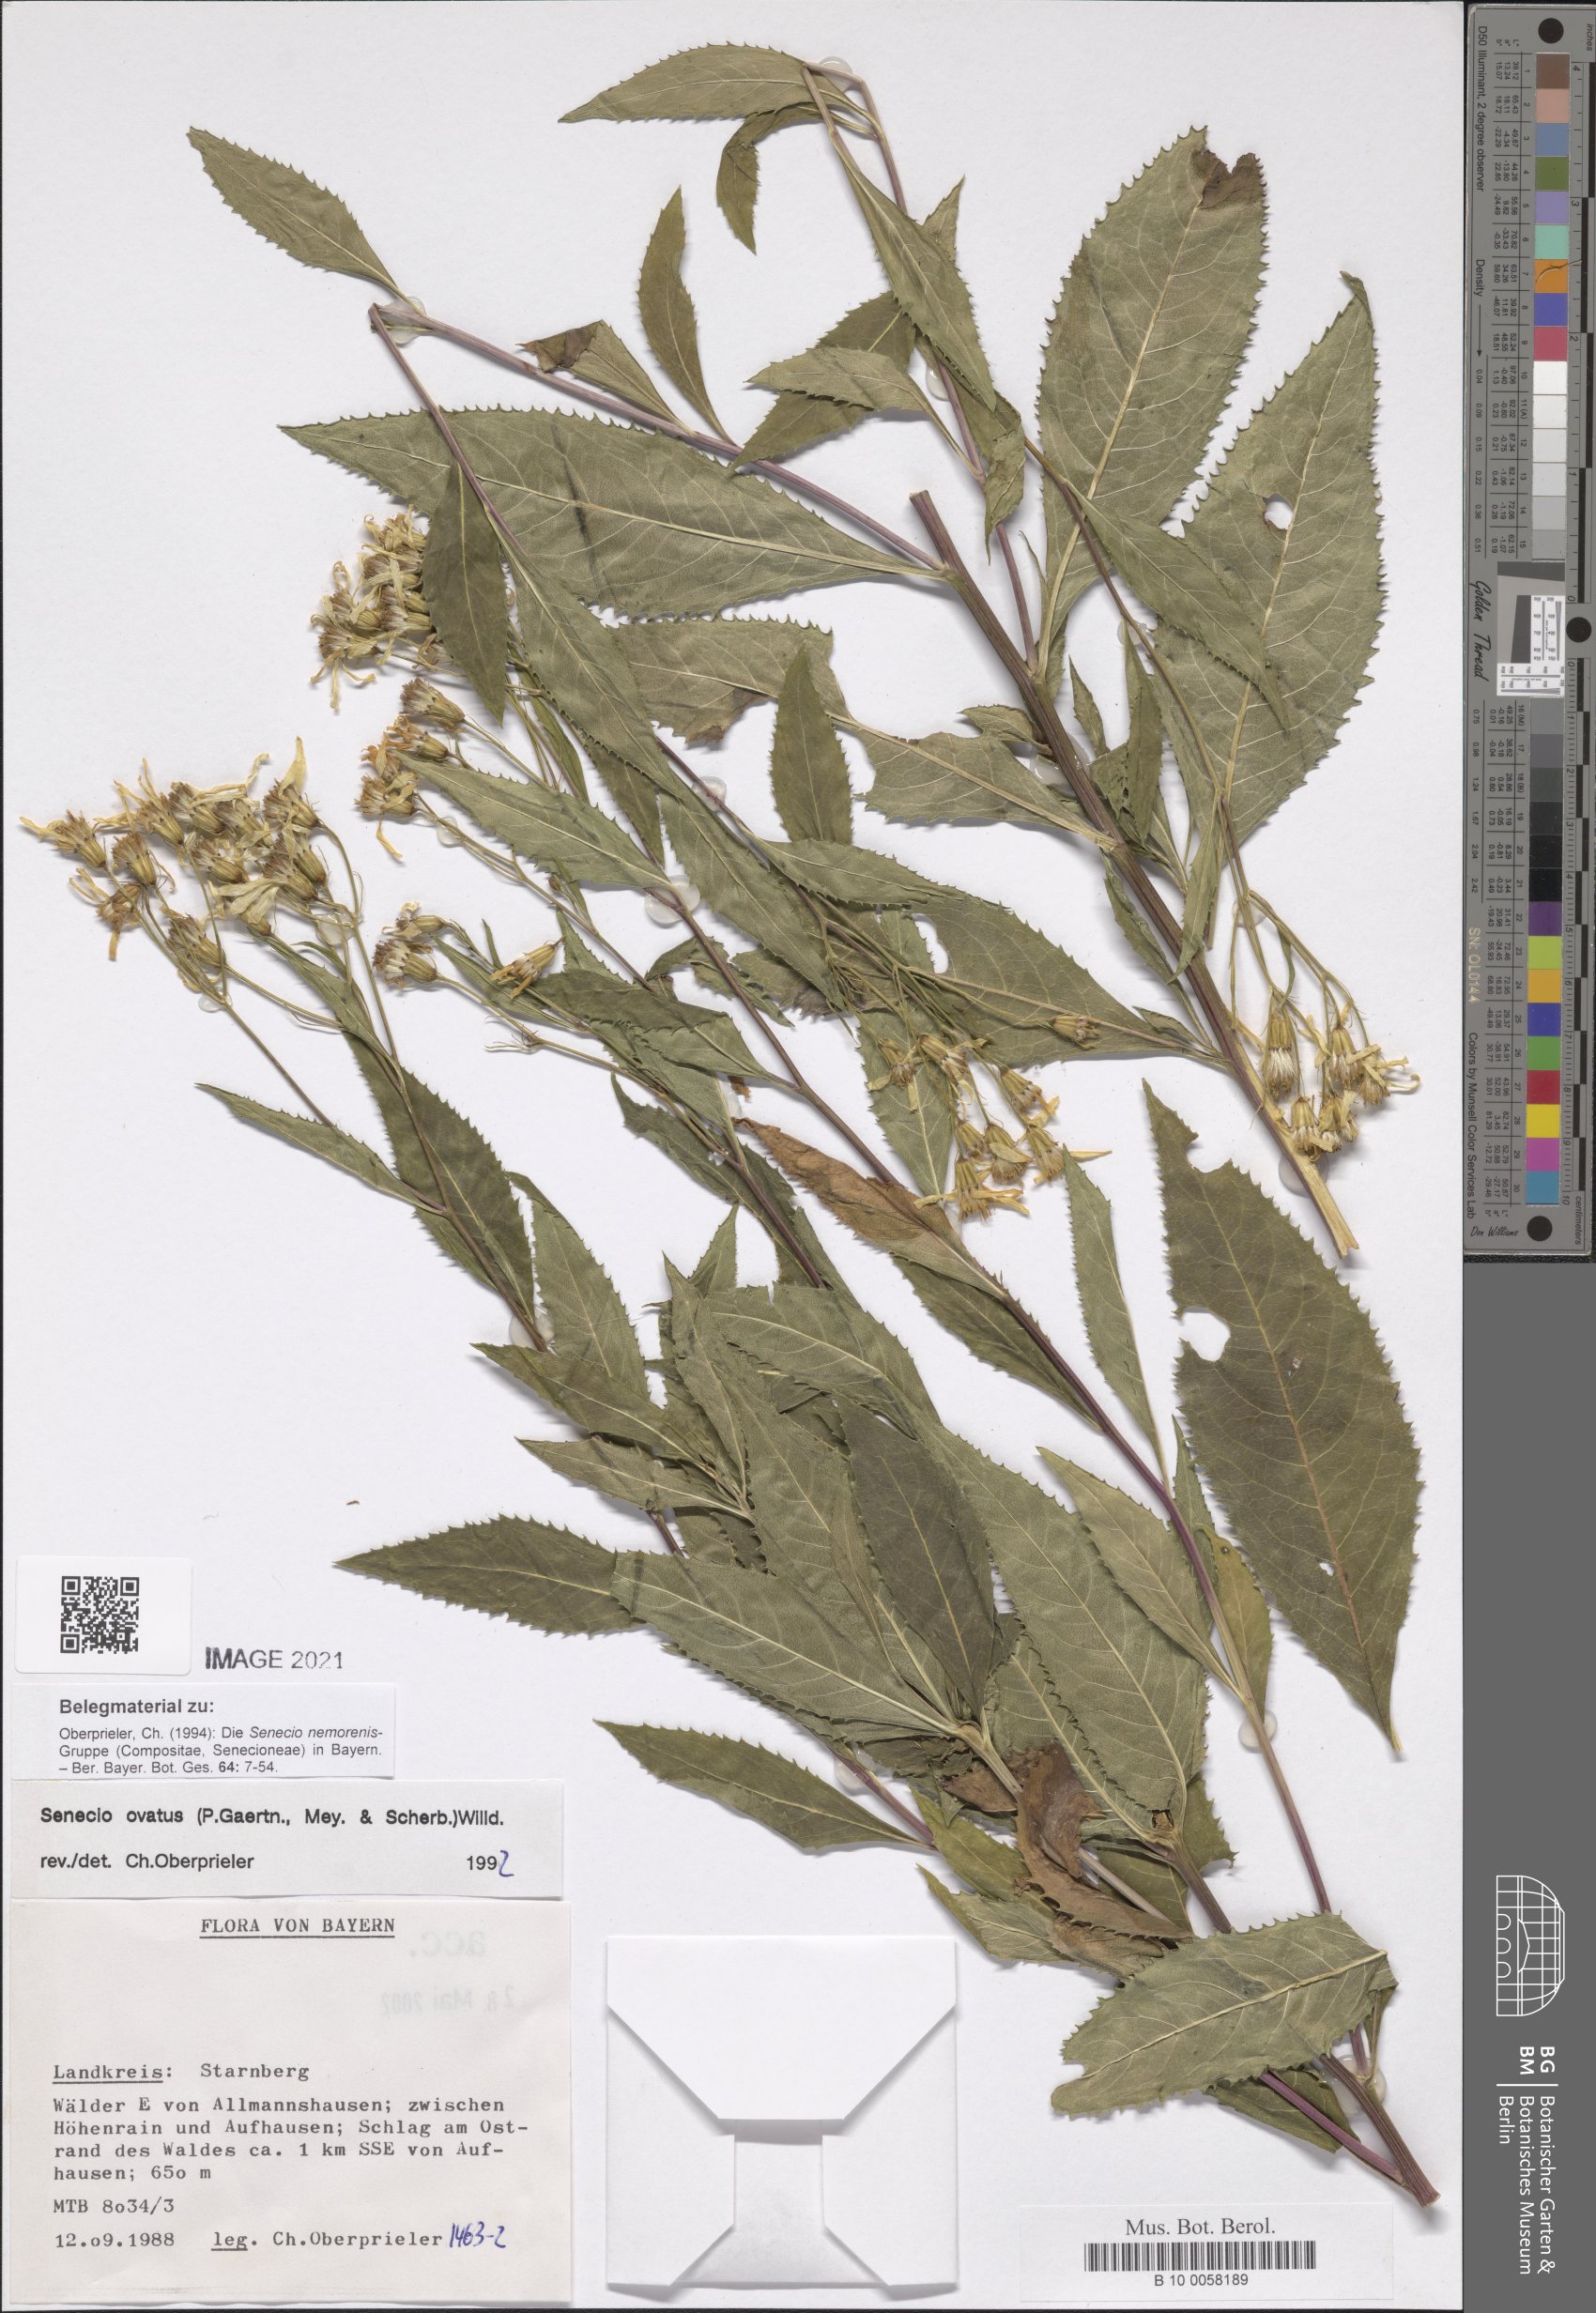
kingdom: Plantae
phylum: Tracheophyta
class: Magnoliopsida
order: Asterales
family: Asteraceae
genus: Senecio
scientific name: Senecio ovatus
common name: Wood ragwort
